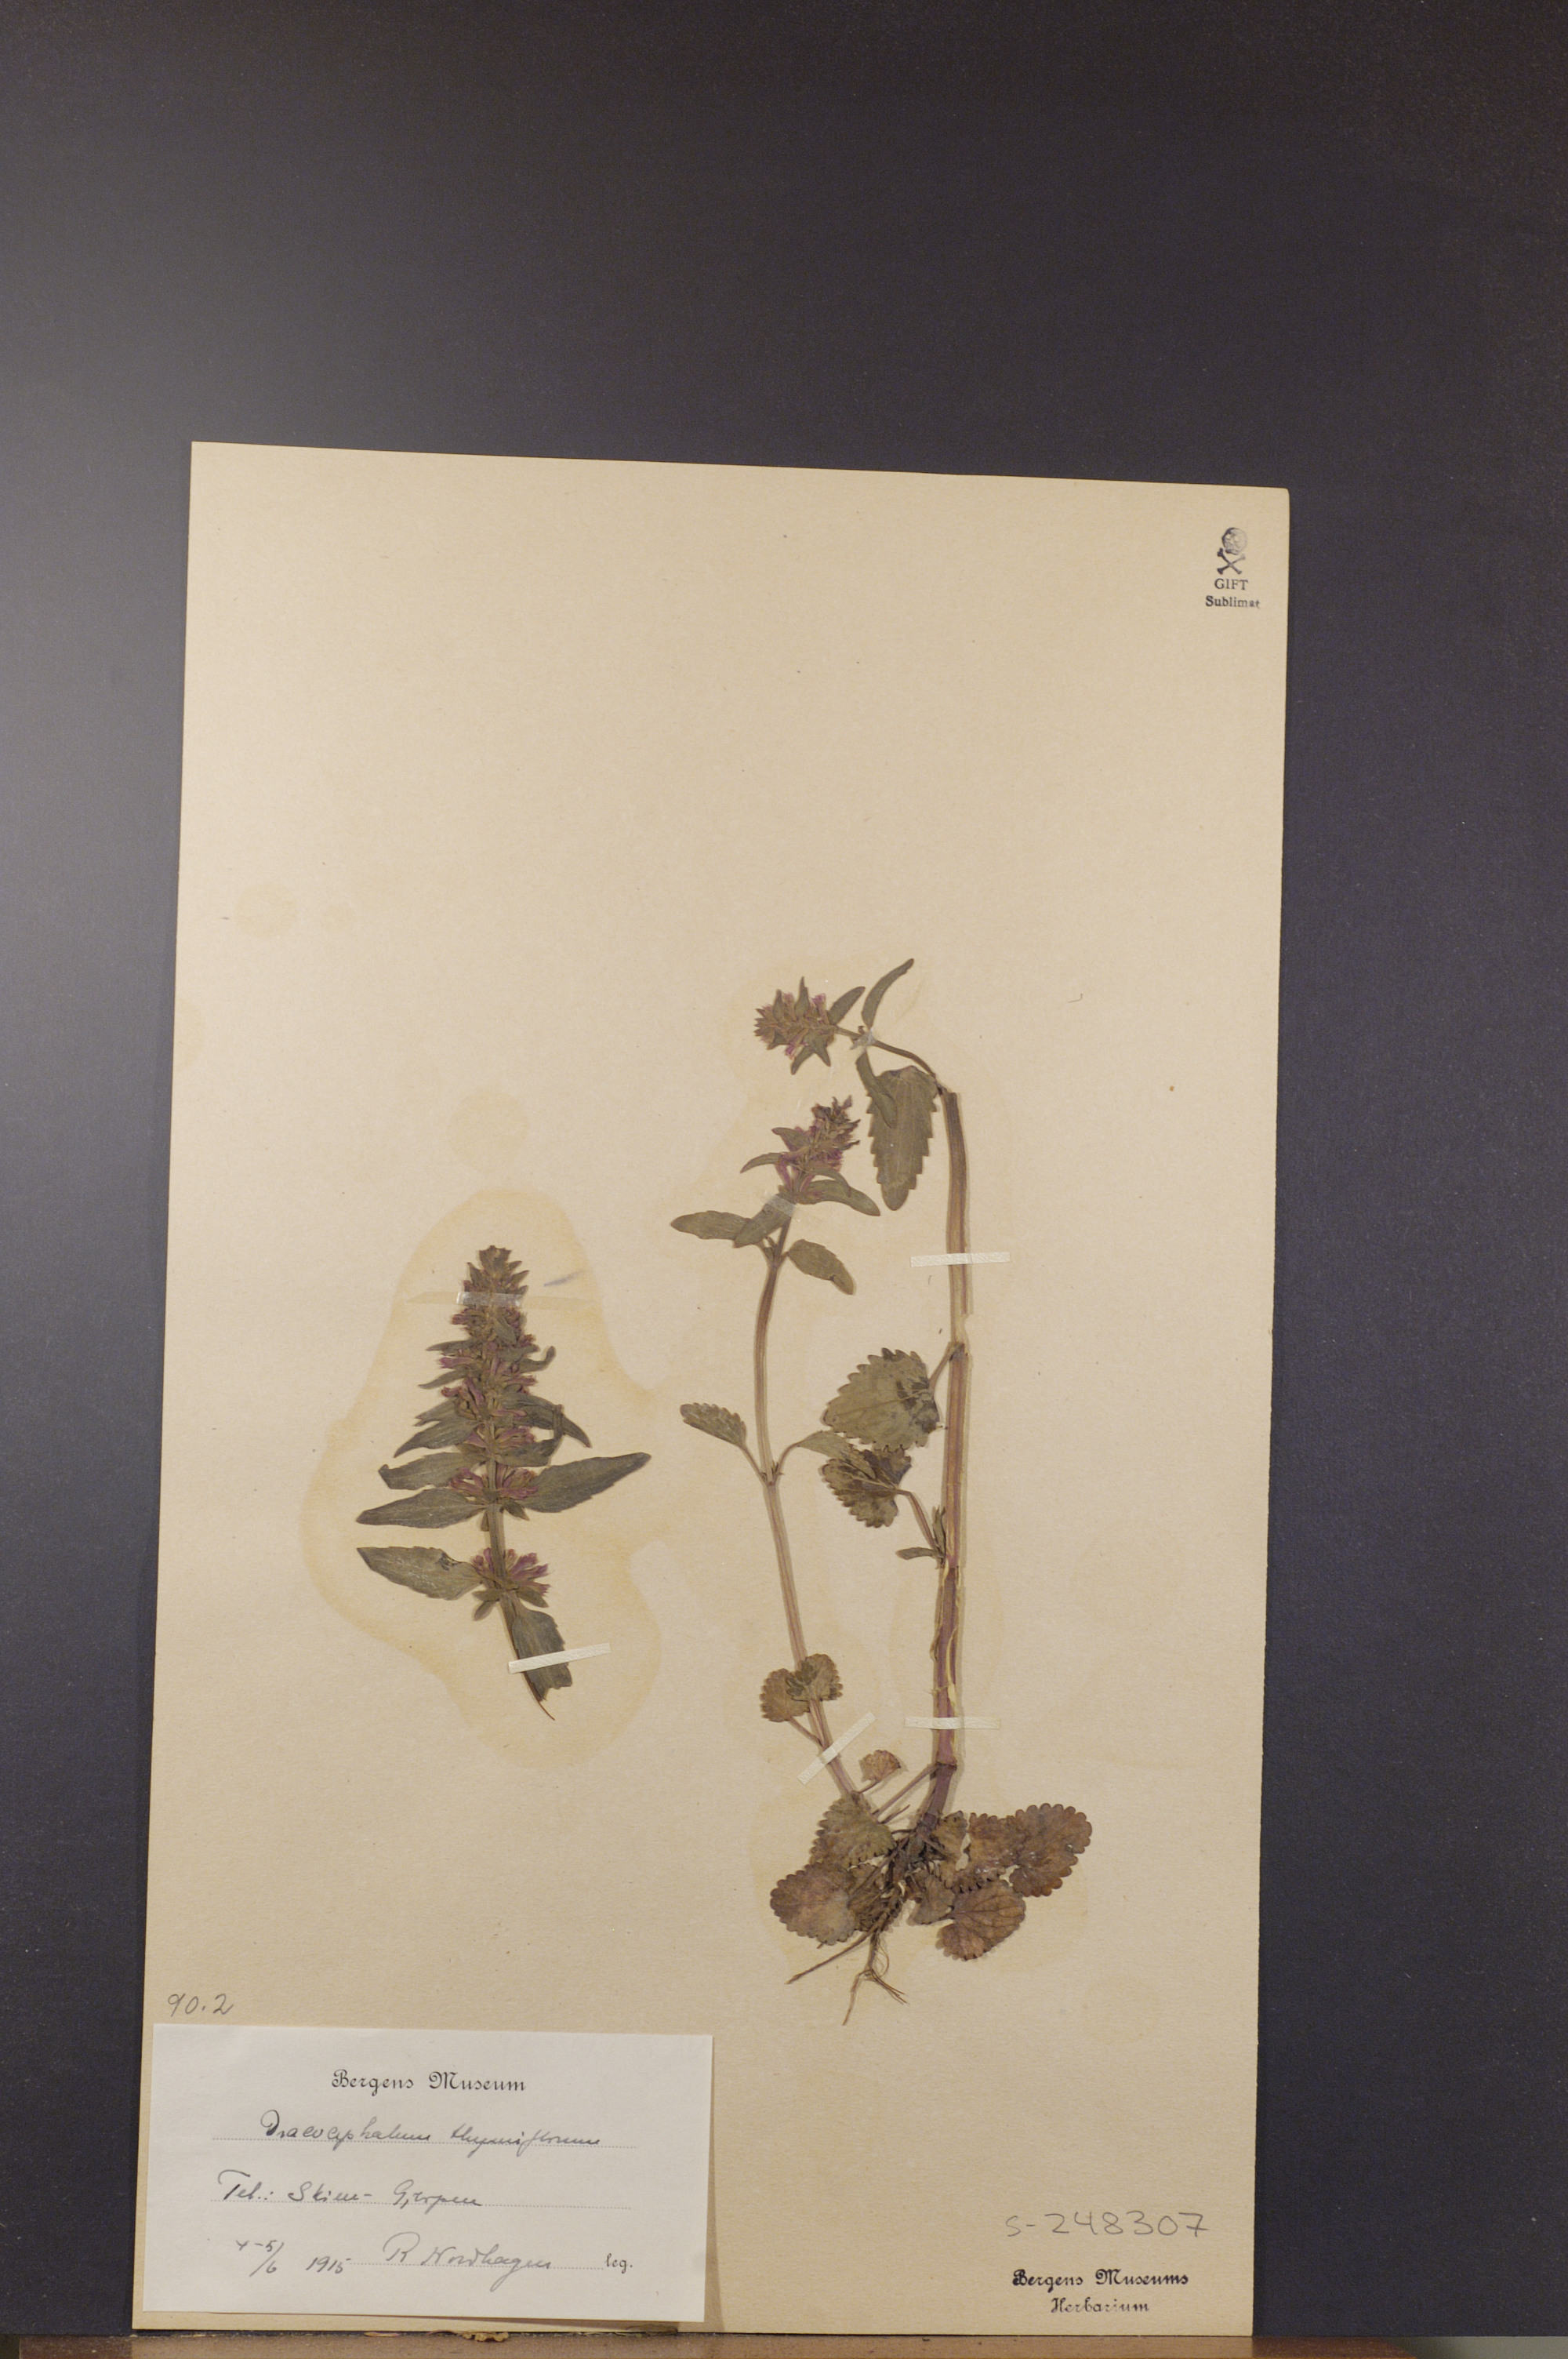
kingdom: Plantae
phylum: Tracheophyta
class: Magnoliopsida
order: Lamiales
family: Lamiaceae
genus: Dracocephalum
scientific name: Dracocephalum thymiflorum
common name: Thymeleaf dragonhead
